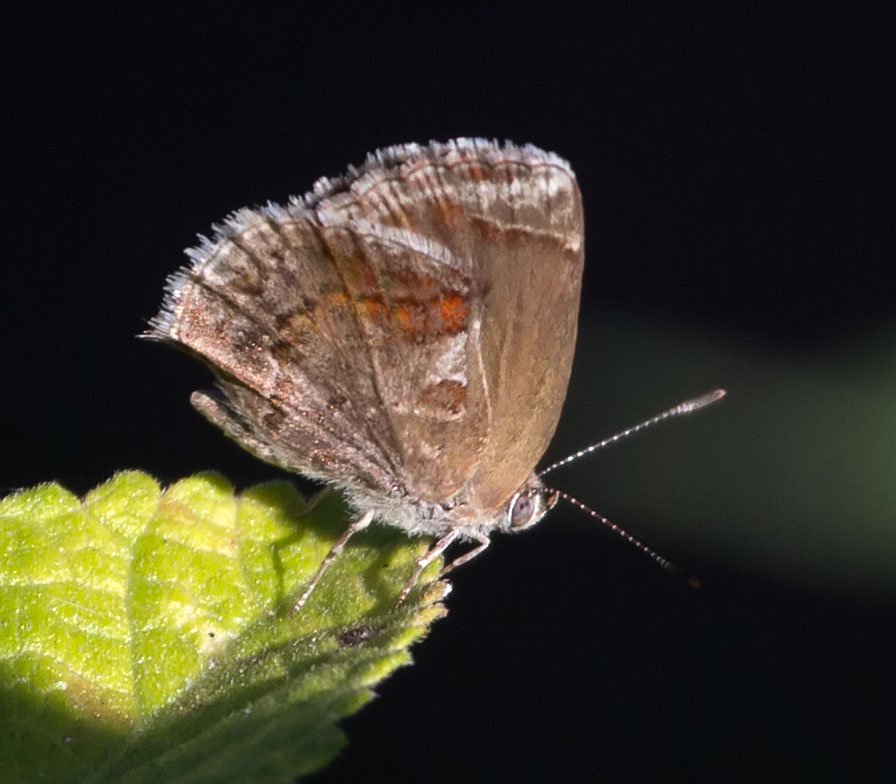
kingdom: Animalia
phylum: Arthropoda
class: Insecta
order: Lepidoptera
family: Lycaenidae
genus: Strymon
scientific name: Strymon bazochii
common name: Lantana Scrub-Hairstreak
